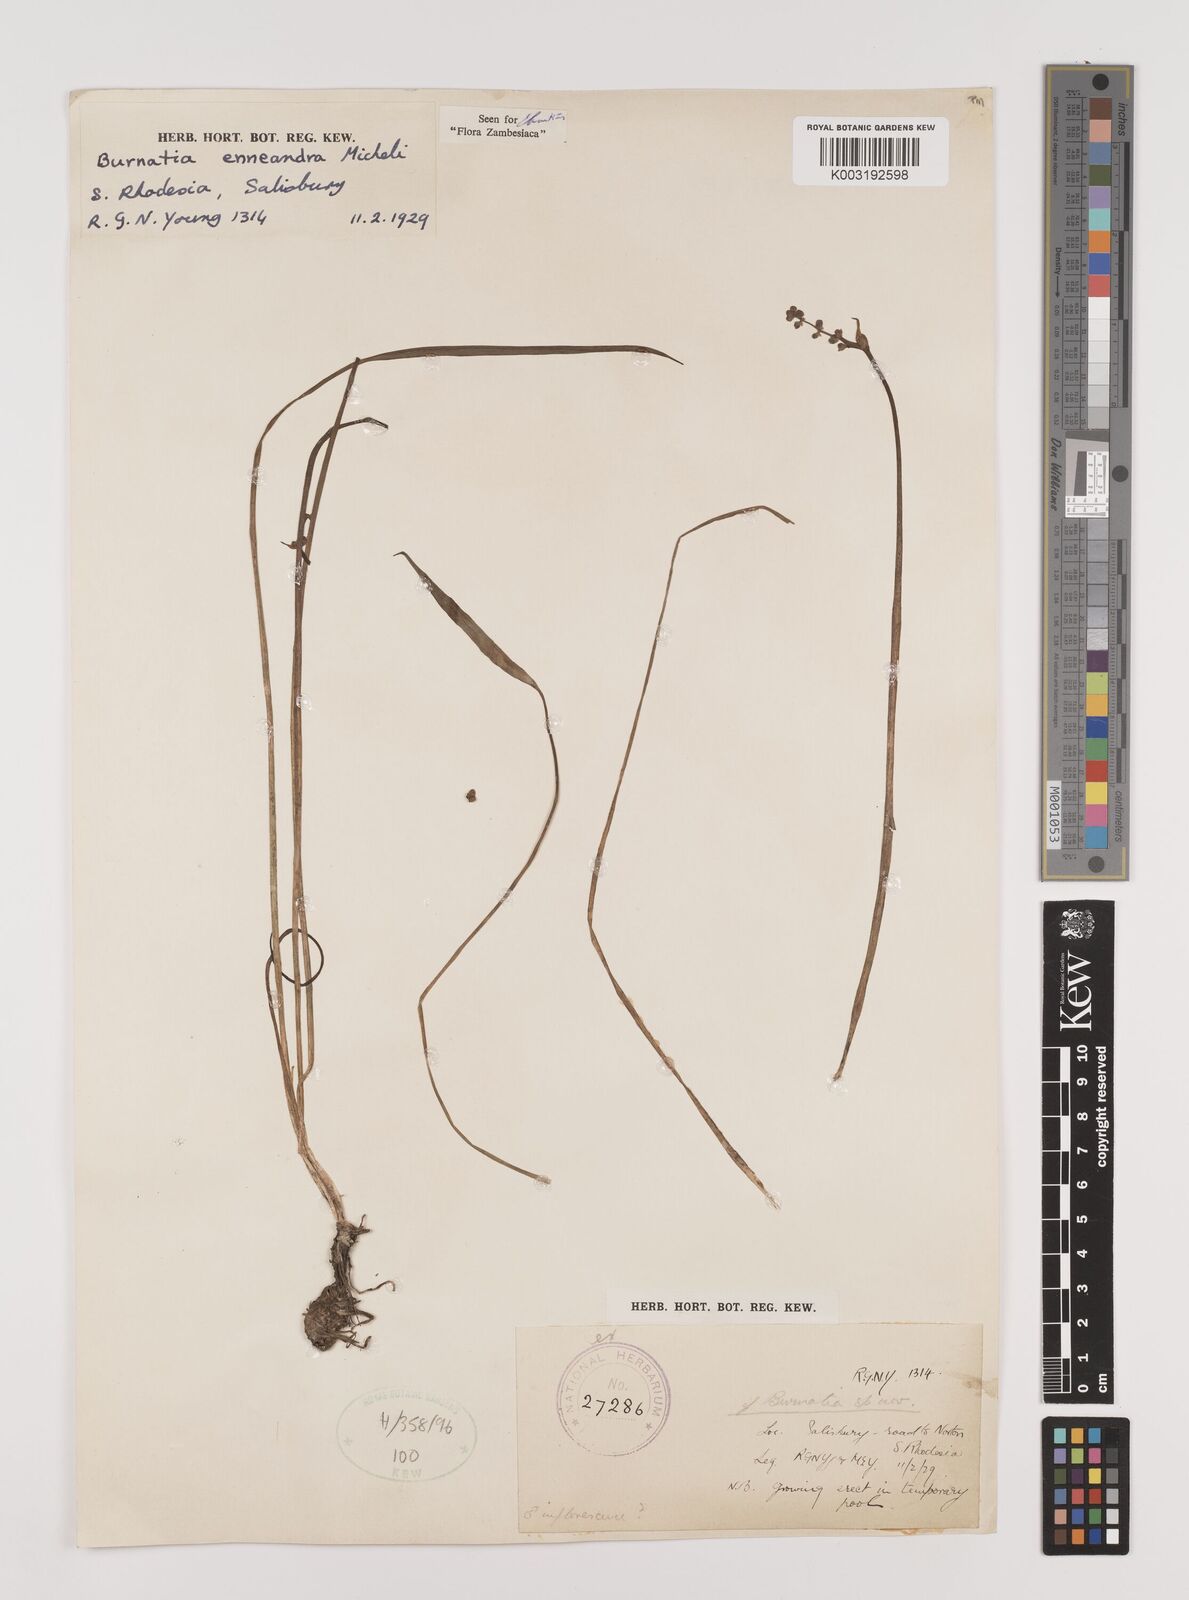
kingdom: Plantae
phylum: Tracheophyta
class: Liliopsida
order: Alismatales
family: Alismataceae
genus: Burnatia
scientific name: Burnatia enneandra
